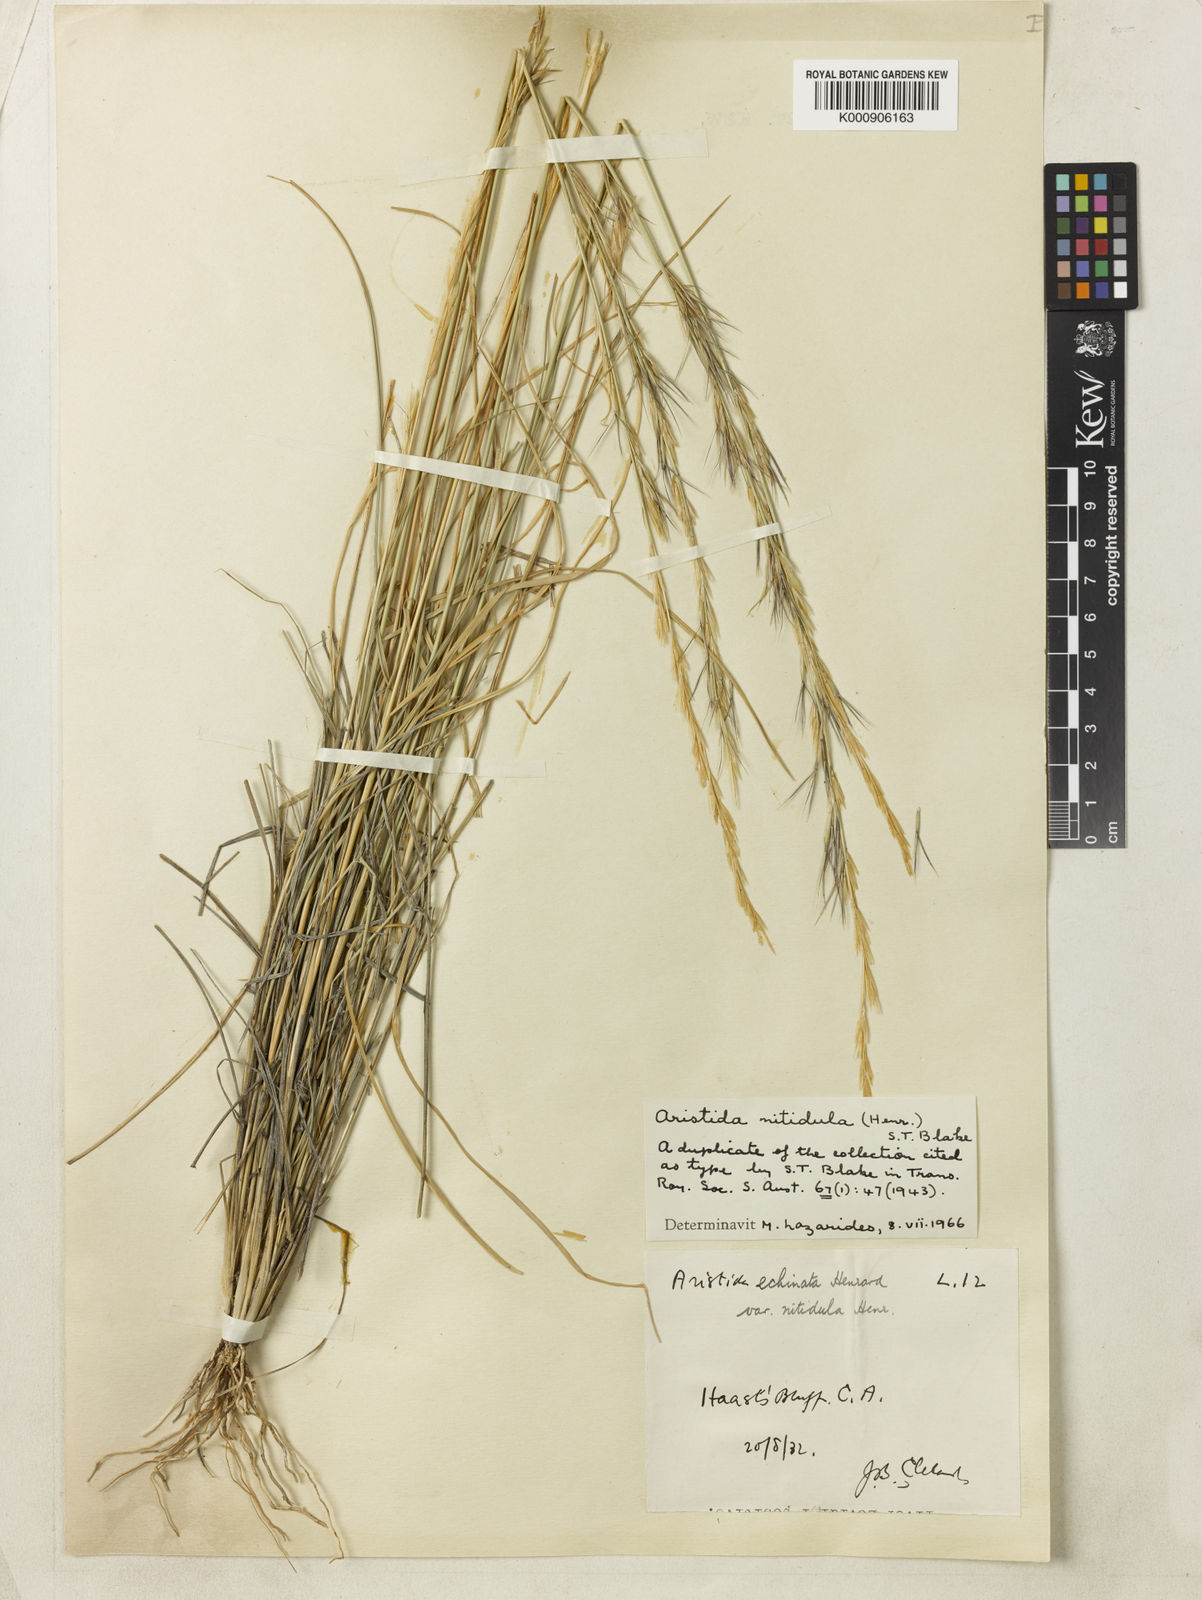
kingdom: Plantae
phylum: Tracheophyta
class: Liliopsida
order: Poales
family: Poaceae
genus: Aristida
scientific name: Aristida nitidula
